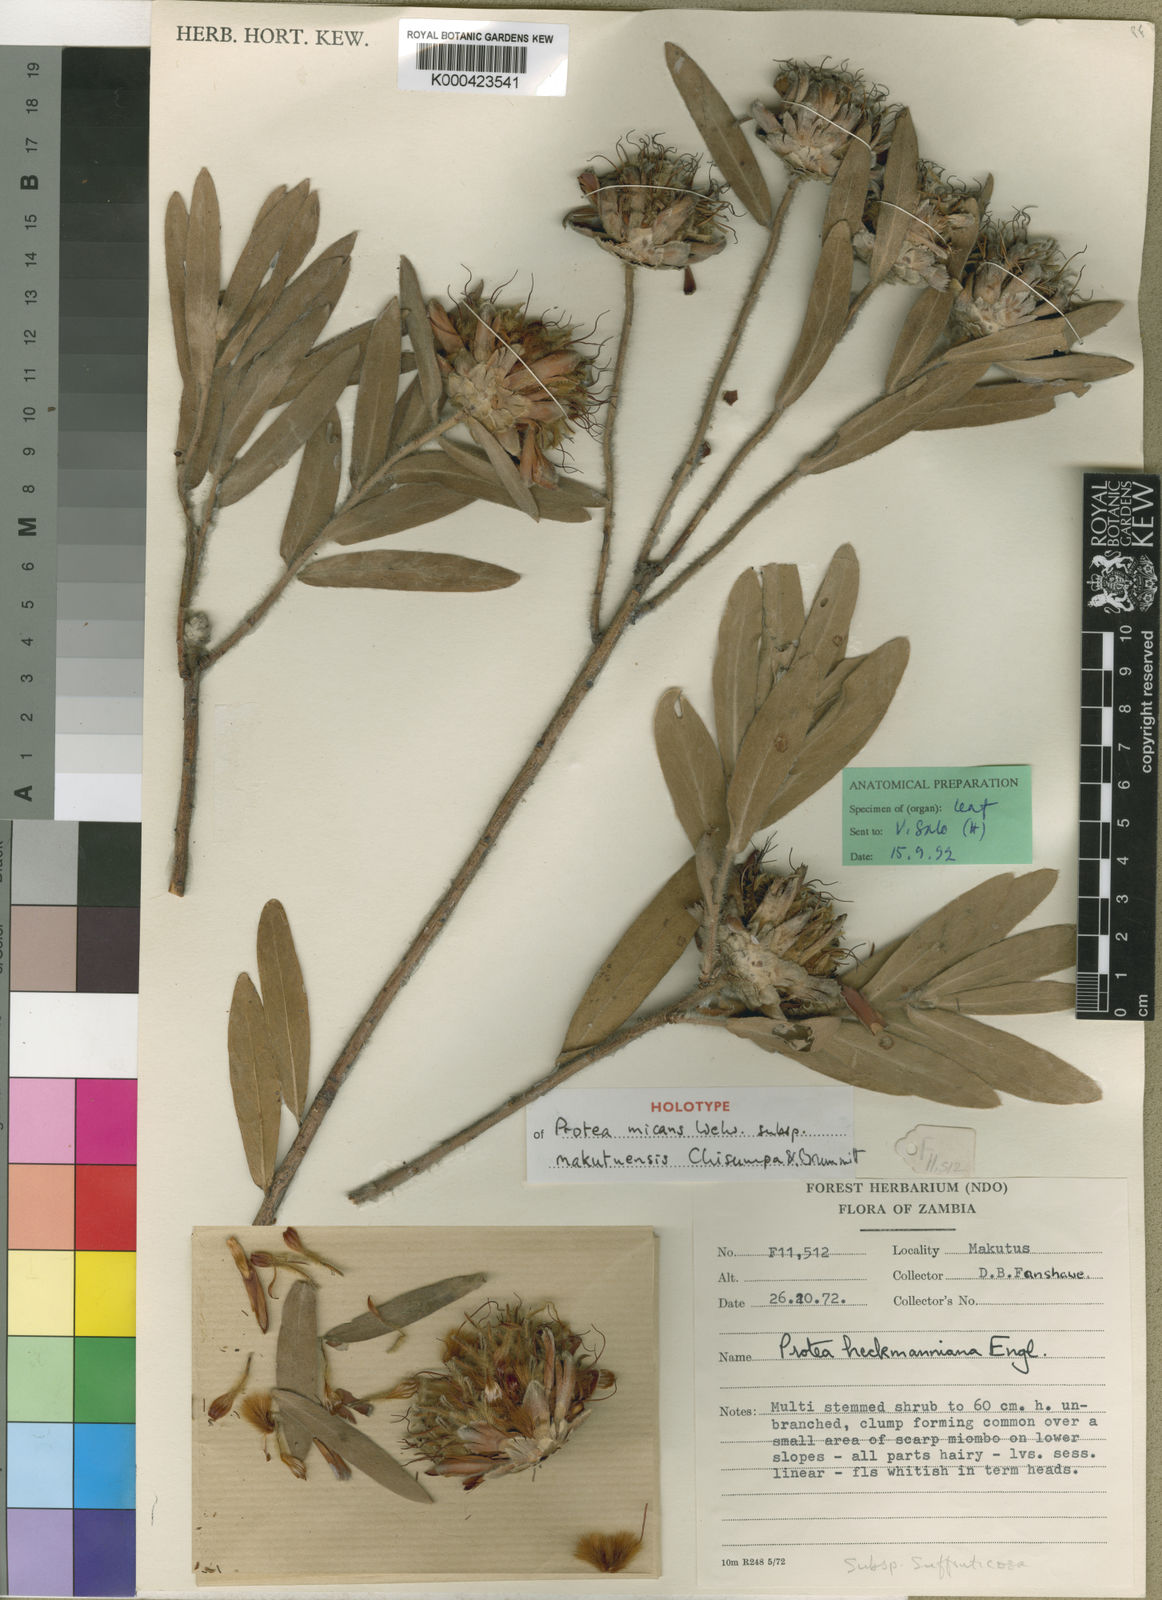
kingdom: Plantae
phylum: Tracheophyta
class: Magnoliopsida
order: Proteales
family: Proteaceae
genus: Protea
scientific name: Protea micans
